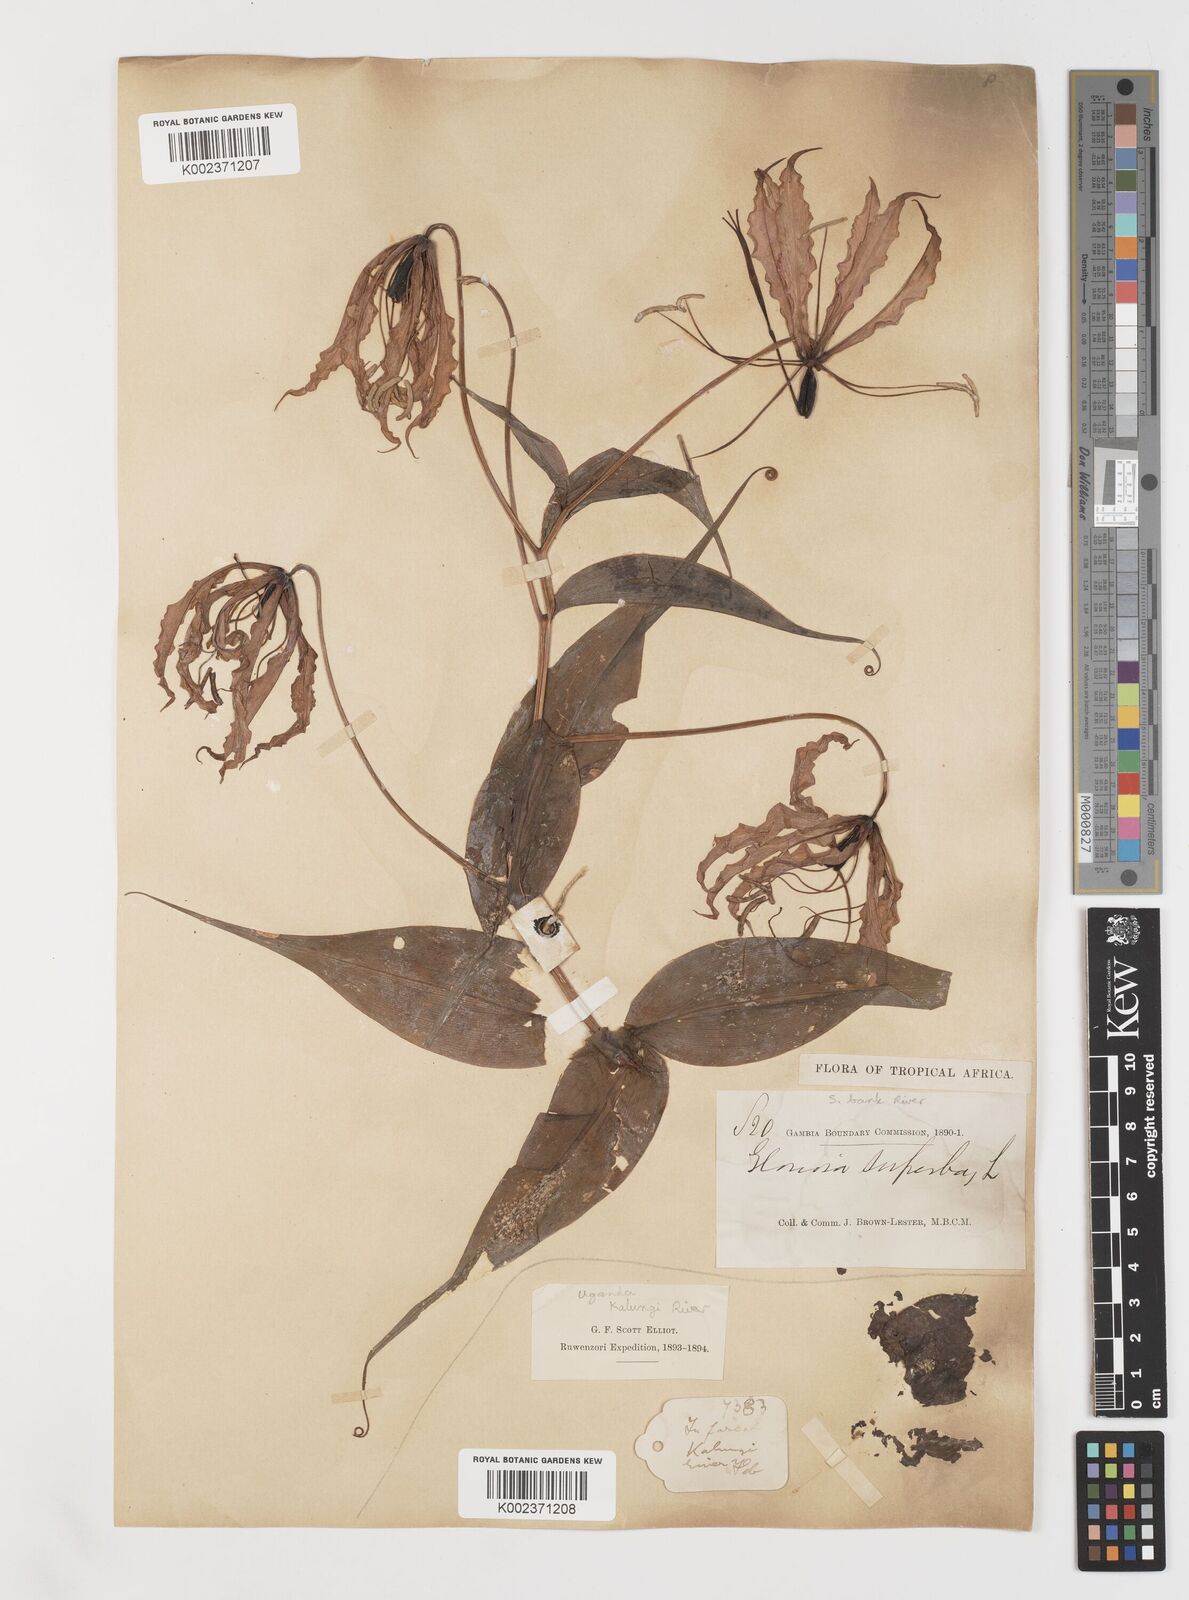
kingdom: Plantae
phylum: Tracheophyta
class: Liliopsida
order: Liliales
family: Colchicaceae
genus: Gloriosa
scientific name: Gloriosa superba
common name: Flame lily
